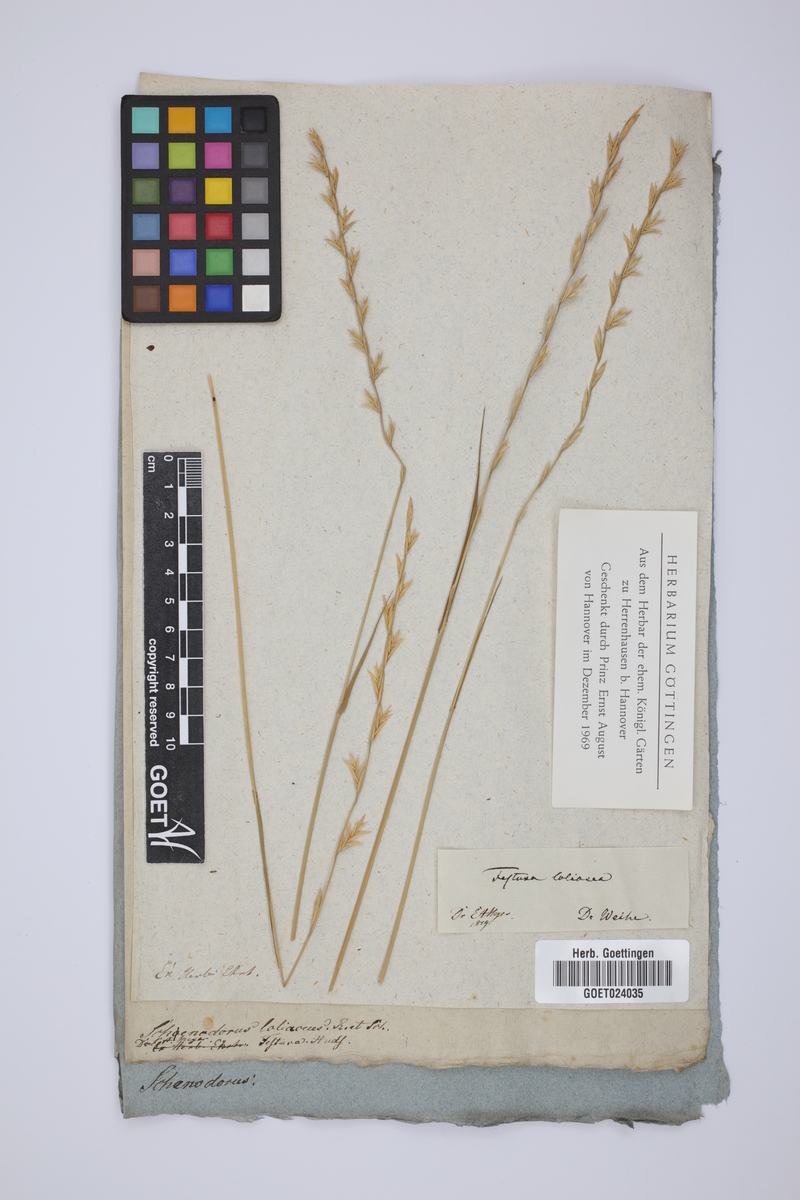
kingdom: Plantae
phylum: Tracheophyta
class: Liliopsida
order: Poales
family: Poaceae
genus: Lolium
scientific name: Lolium elongatum
